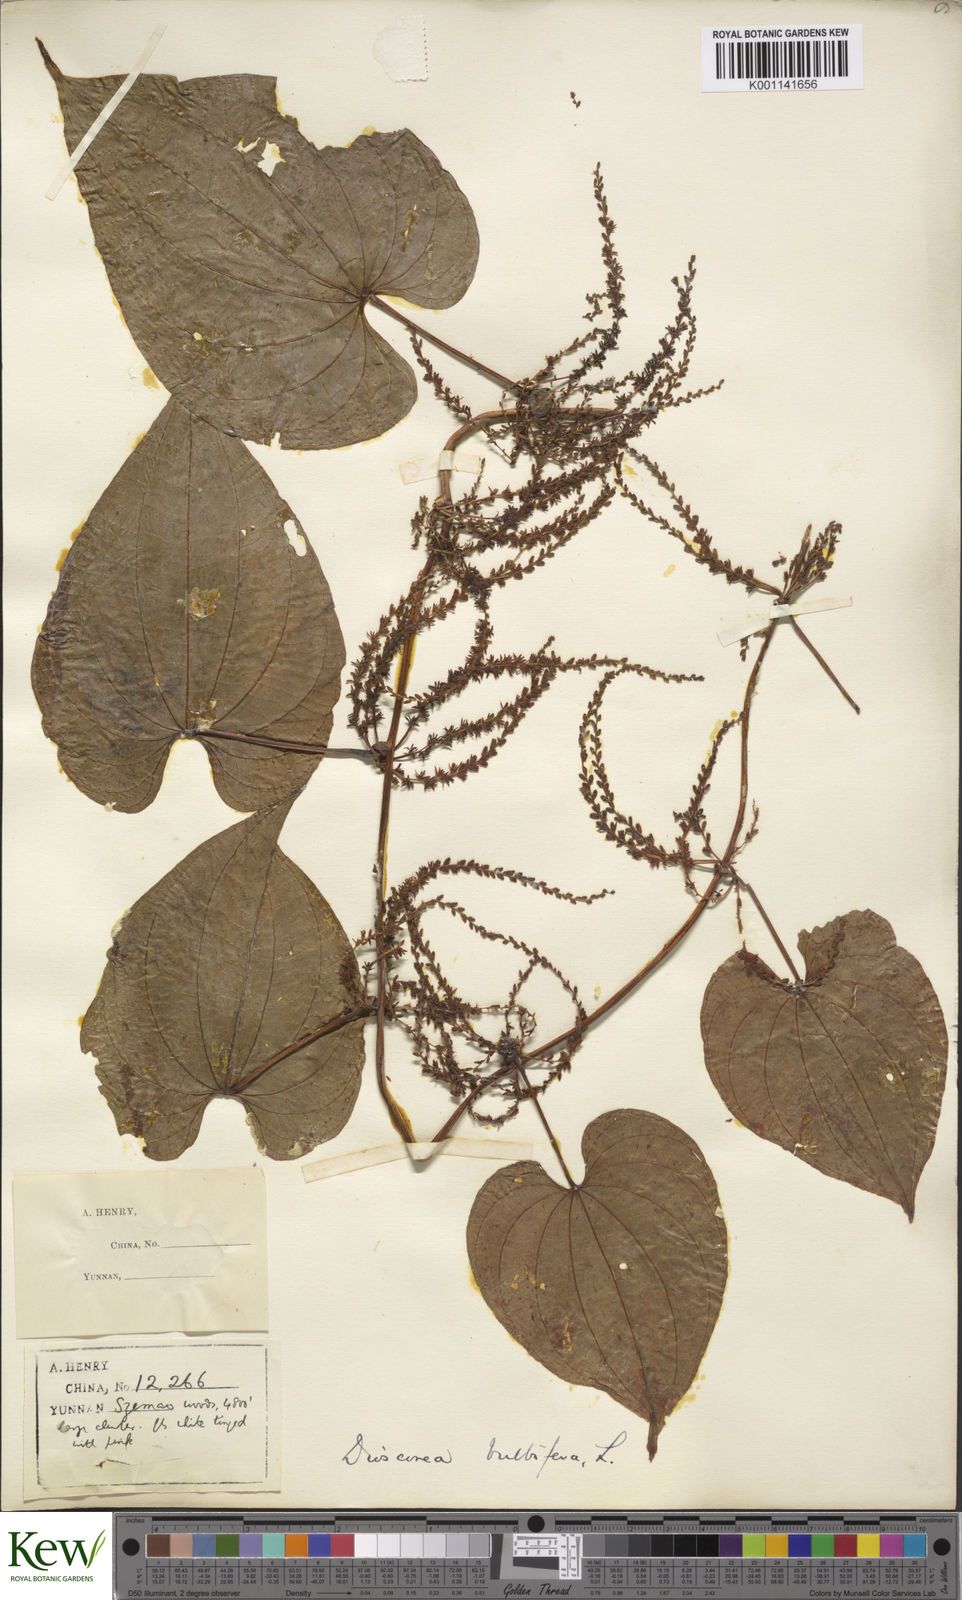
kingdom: Plantae
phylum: Tracheophyta
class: Liliopsida
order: Dioscoreales
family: Dioscoreaceae
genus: Dioscorea
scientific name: Dioscorea bulbifera
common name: Air yam
